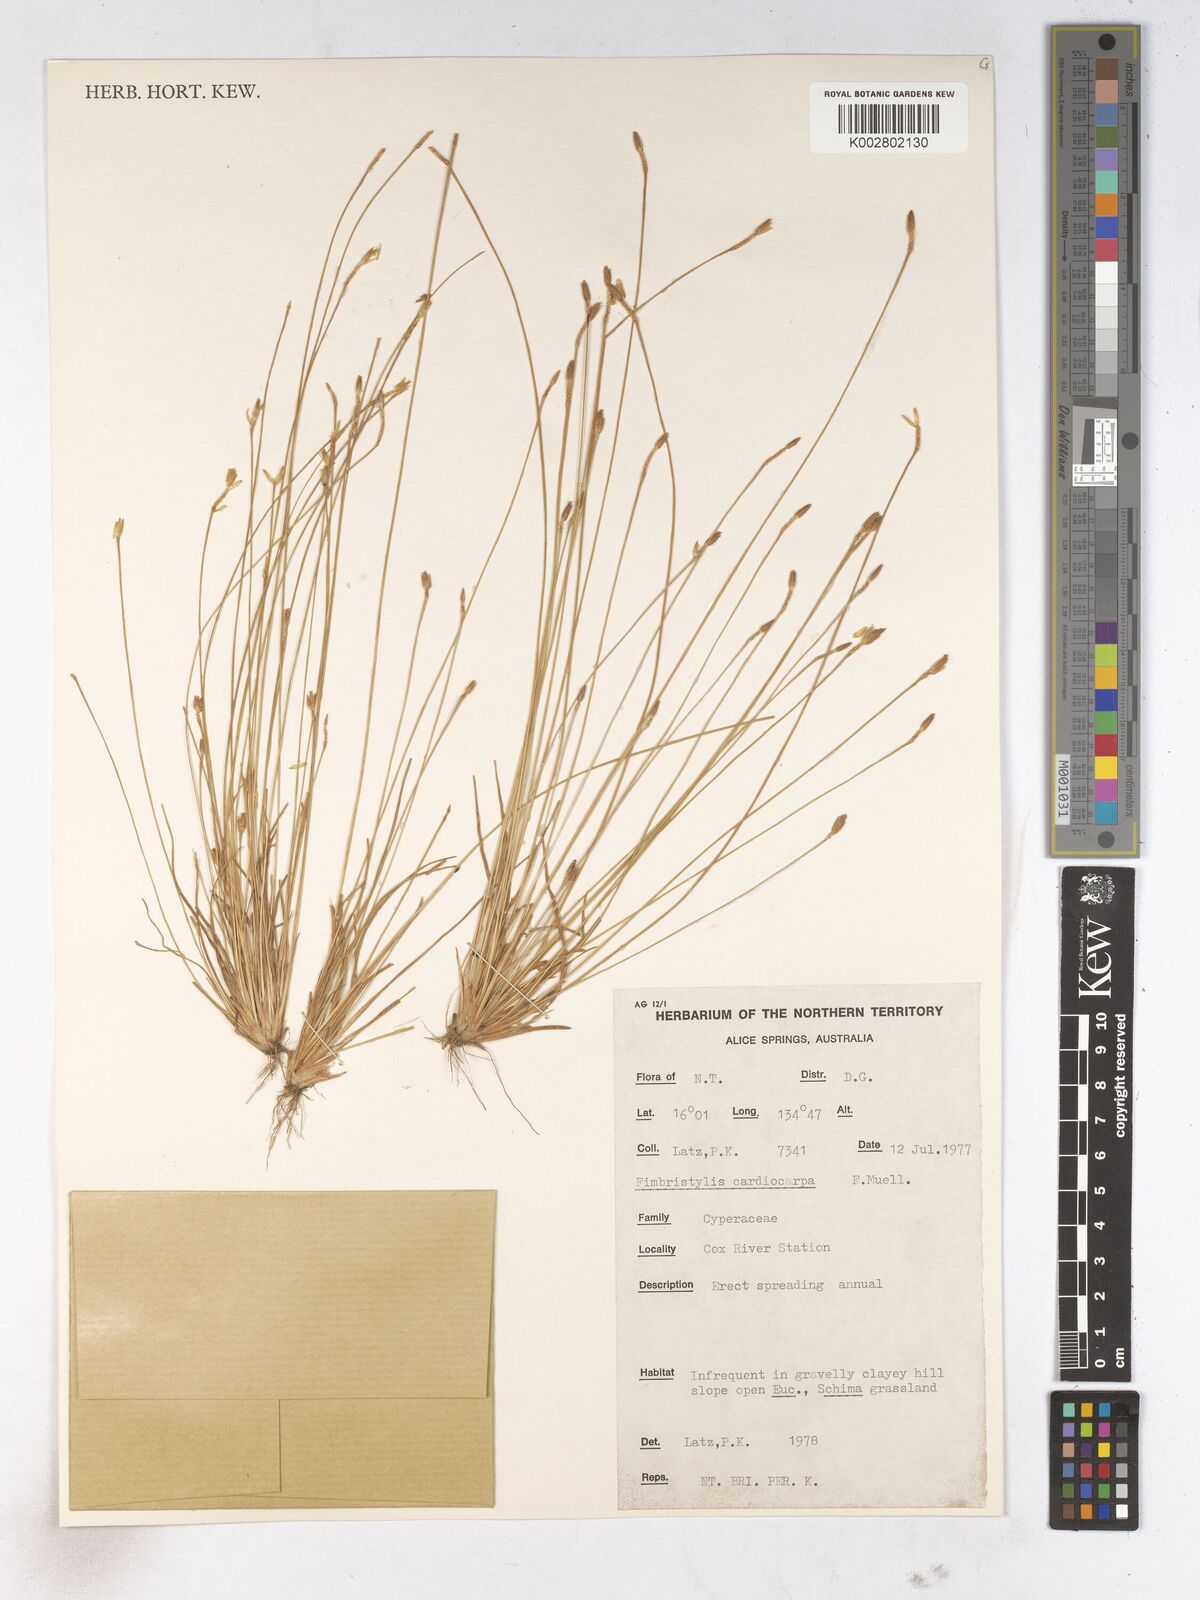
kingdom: Plantae
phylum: Tracheophyta
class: Liliopsida
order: Poales
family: Cyperaceae
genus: Fimbristylis
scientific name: Fimbristylis cardiocarpa
